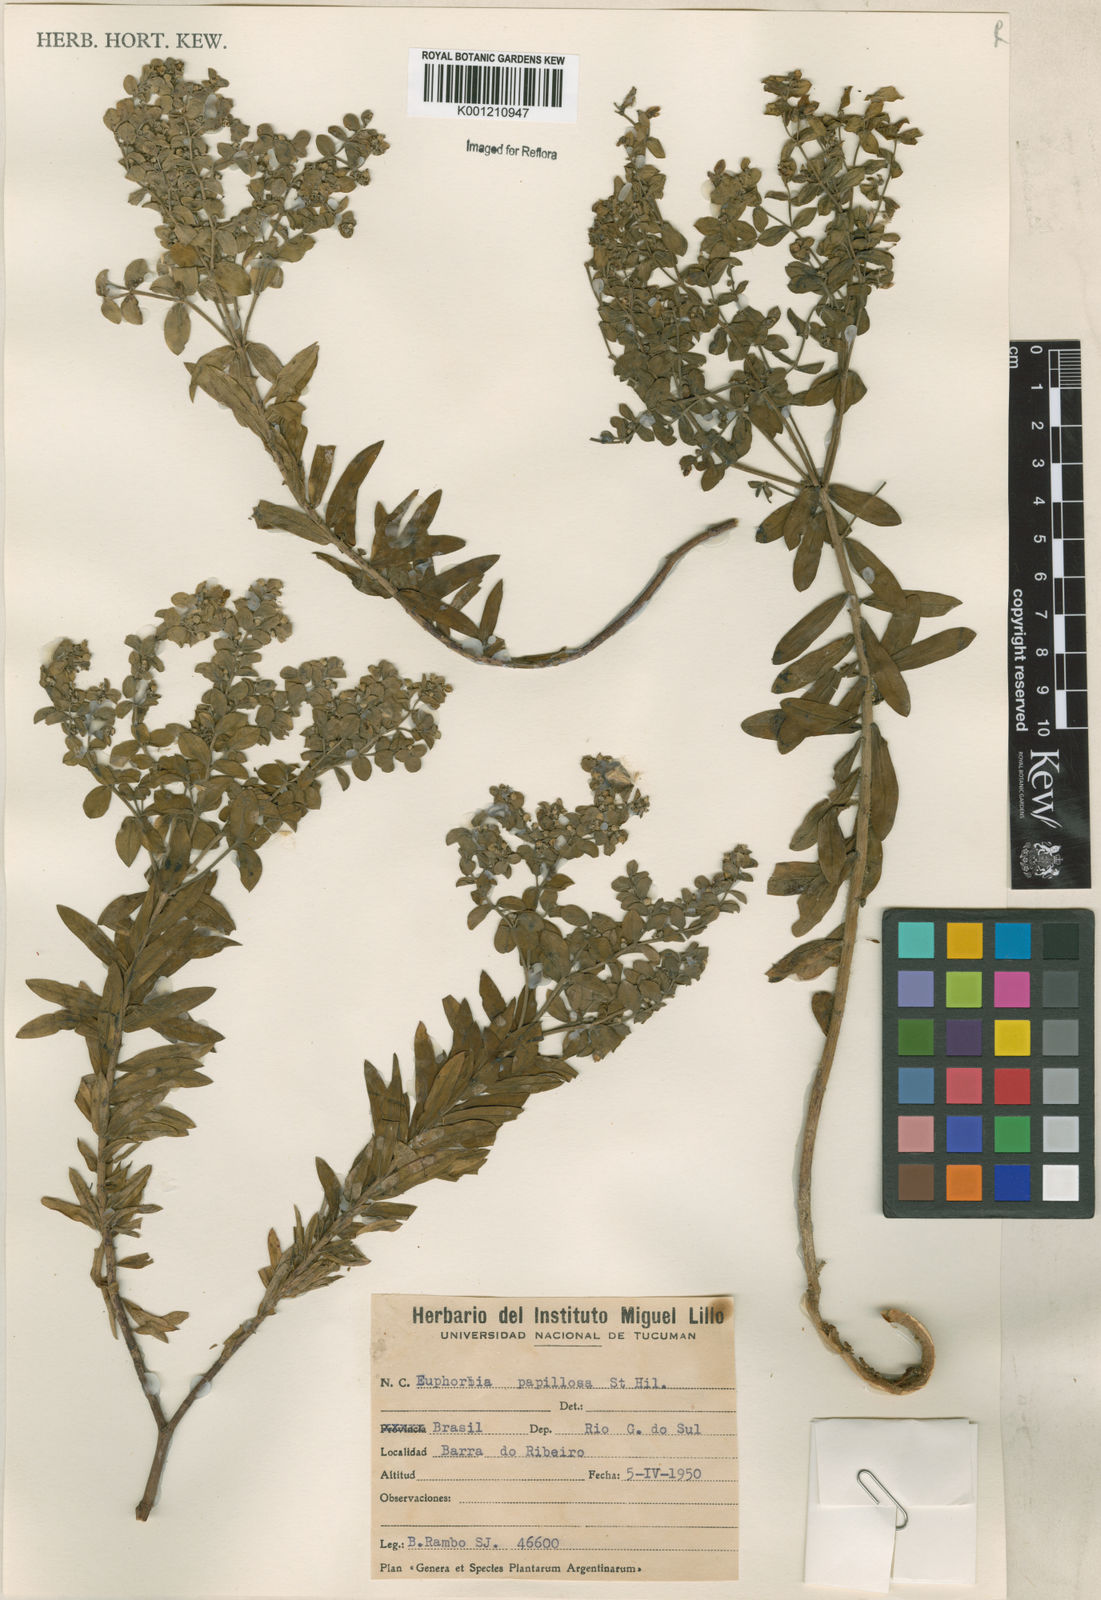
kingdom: Plantae
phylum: Tracheophyta
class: Magnoliopsida
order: Malpighiales
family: Euphorbiaceae
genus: Euphorbia
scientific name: Euphorbia papillosa
